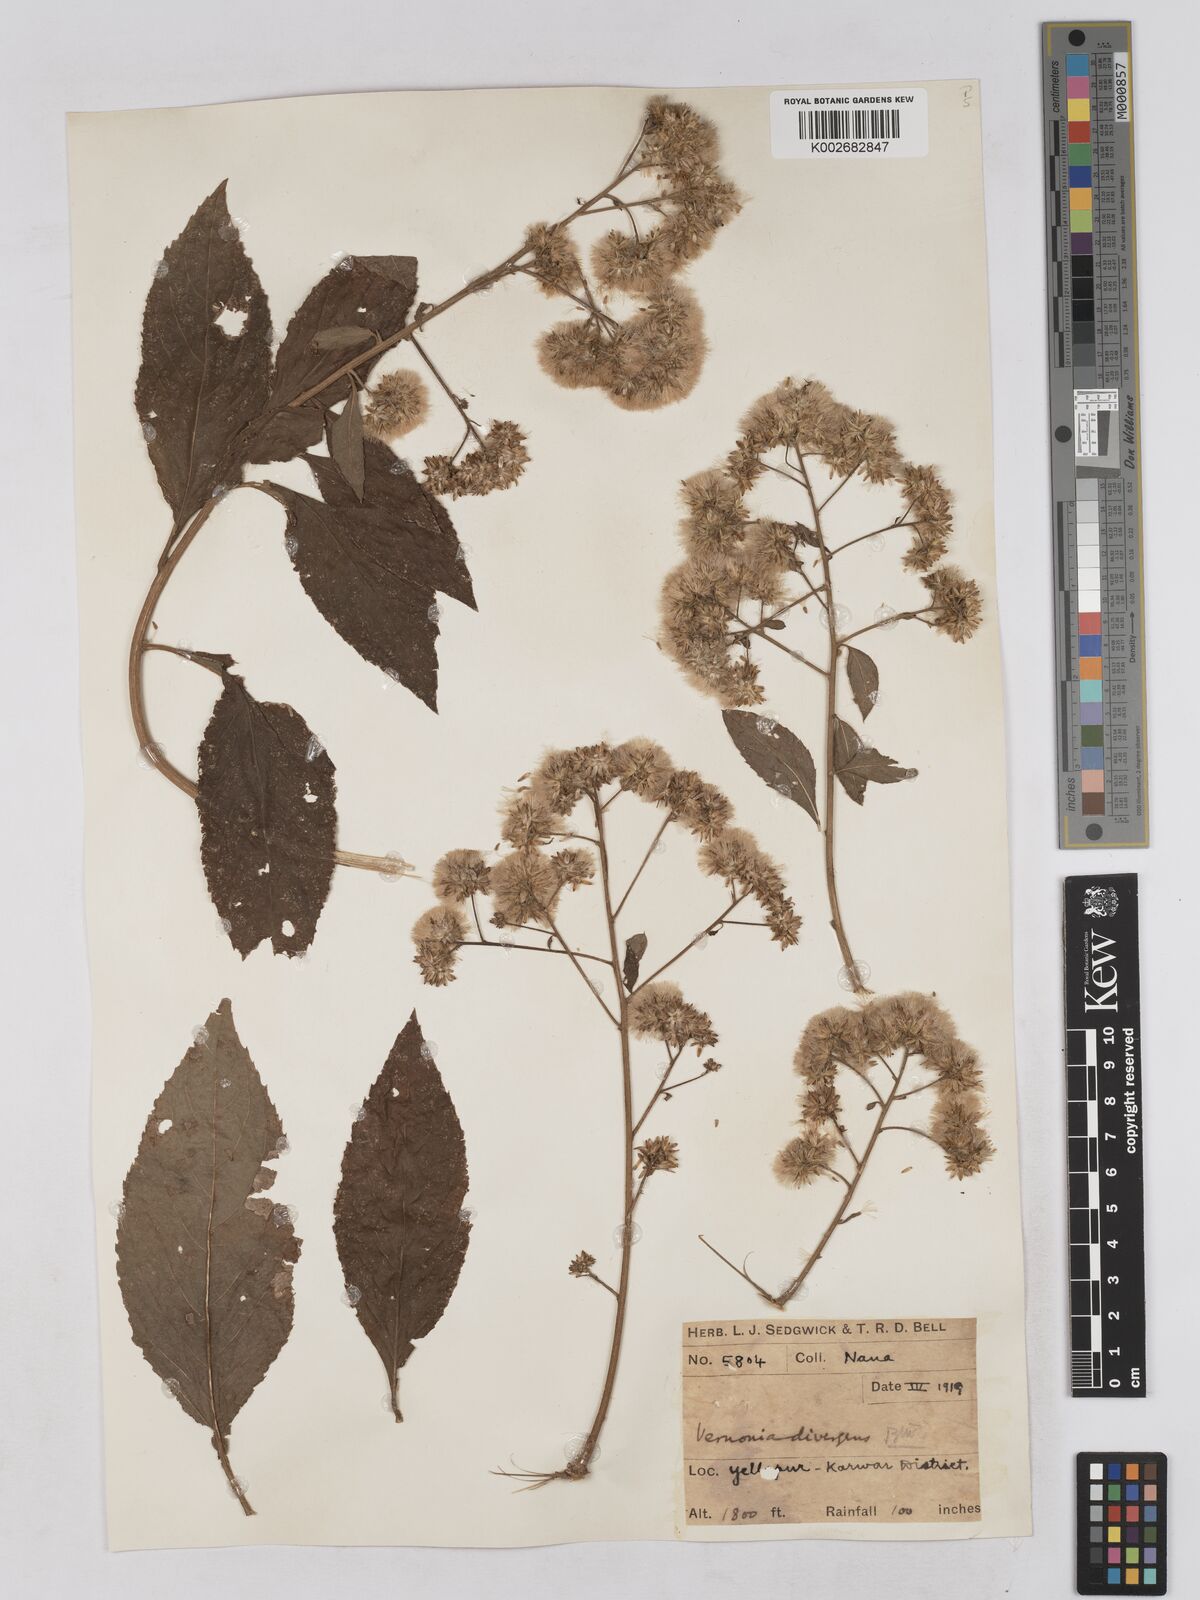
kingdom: Plantae
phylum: Tracheophyta
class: Magnoliopsida
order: Asterales
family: Asteraceae
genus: Acilepis
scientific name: Acilepis divergens
